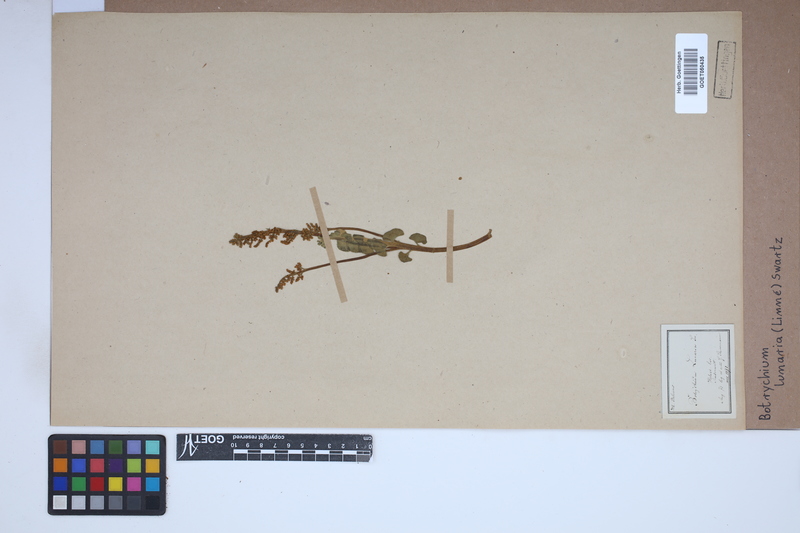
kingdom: Plantae
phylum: Tracheophyta
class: Polypodiopsida
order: Ophioglossales
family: Ophioglossaceae
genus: Botrychium
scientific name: Botrychium lunaria
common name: Moonwort
